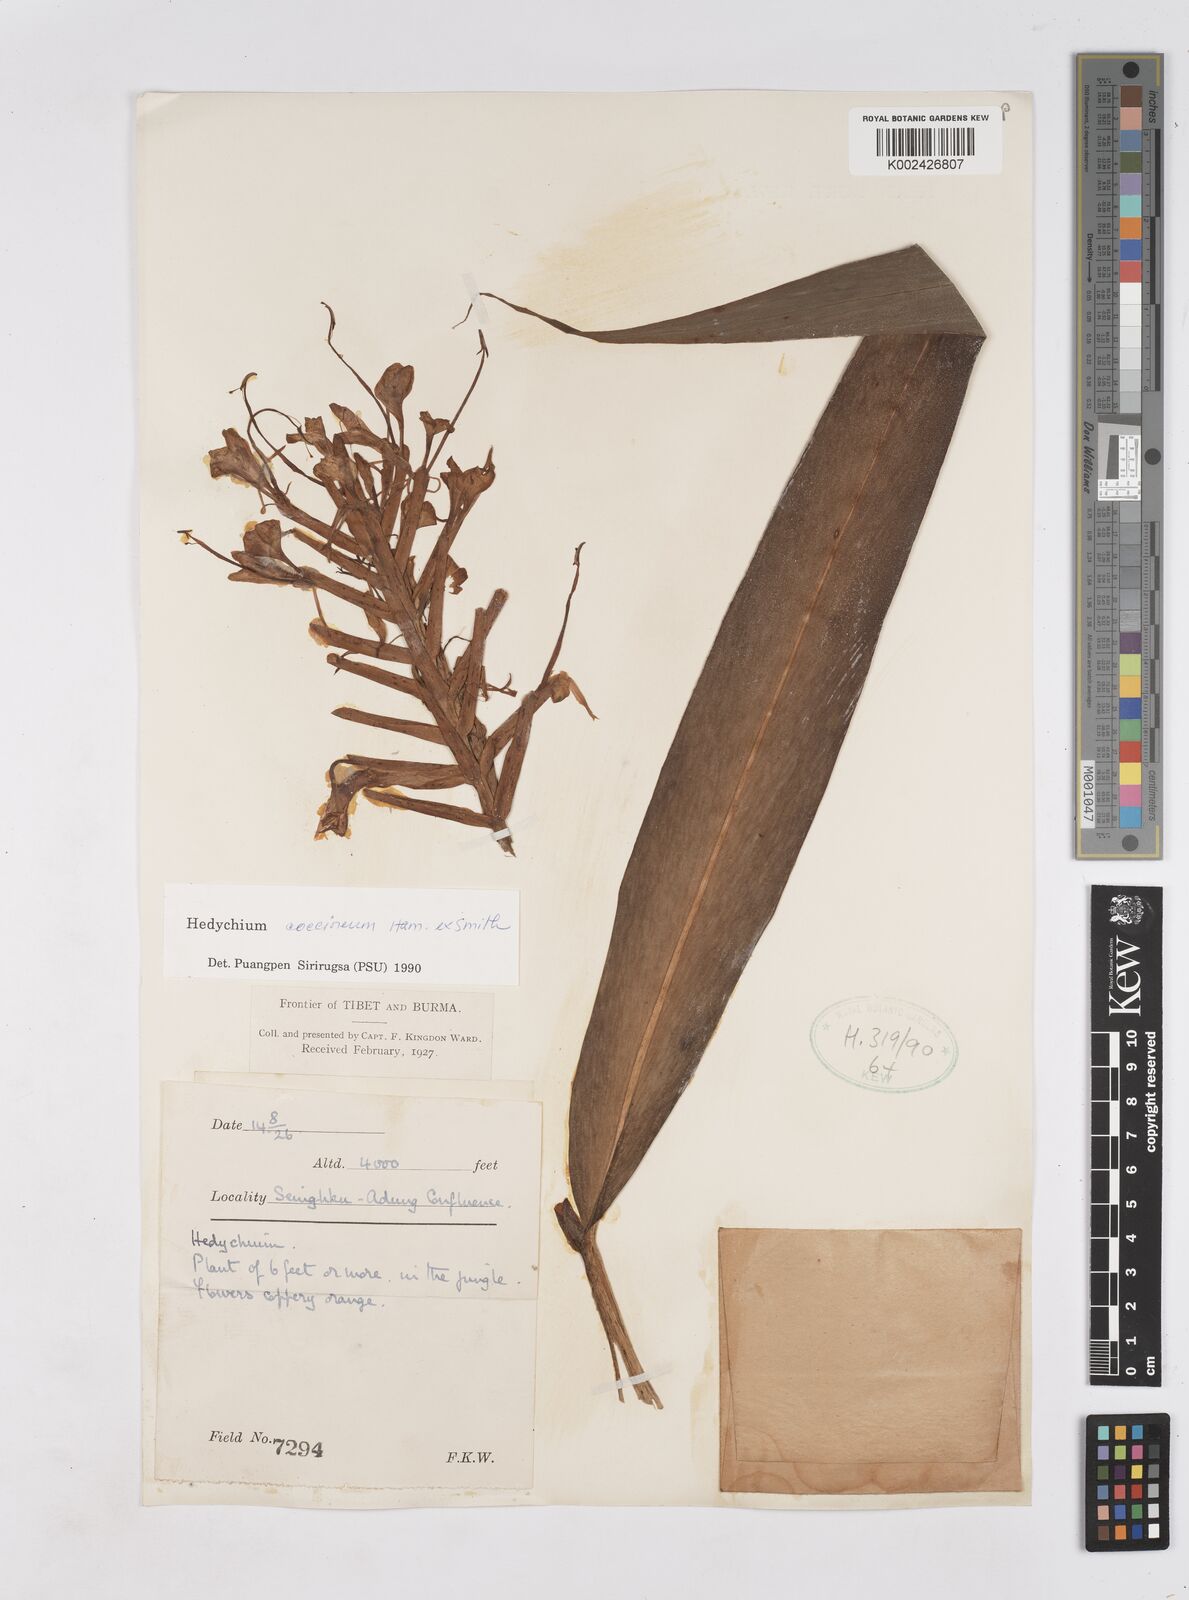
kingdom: Plantae
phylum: Tracheophyta
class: Liliopsida
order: Zingiberales
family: Zingiberaceae
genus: Hedychium
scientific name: Hedychium coccineum
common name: Red ginger-lily
